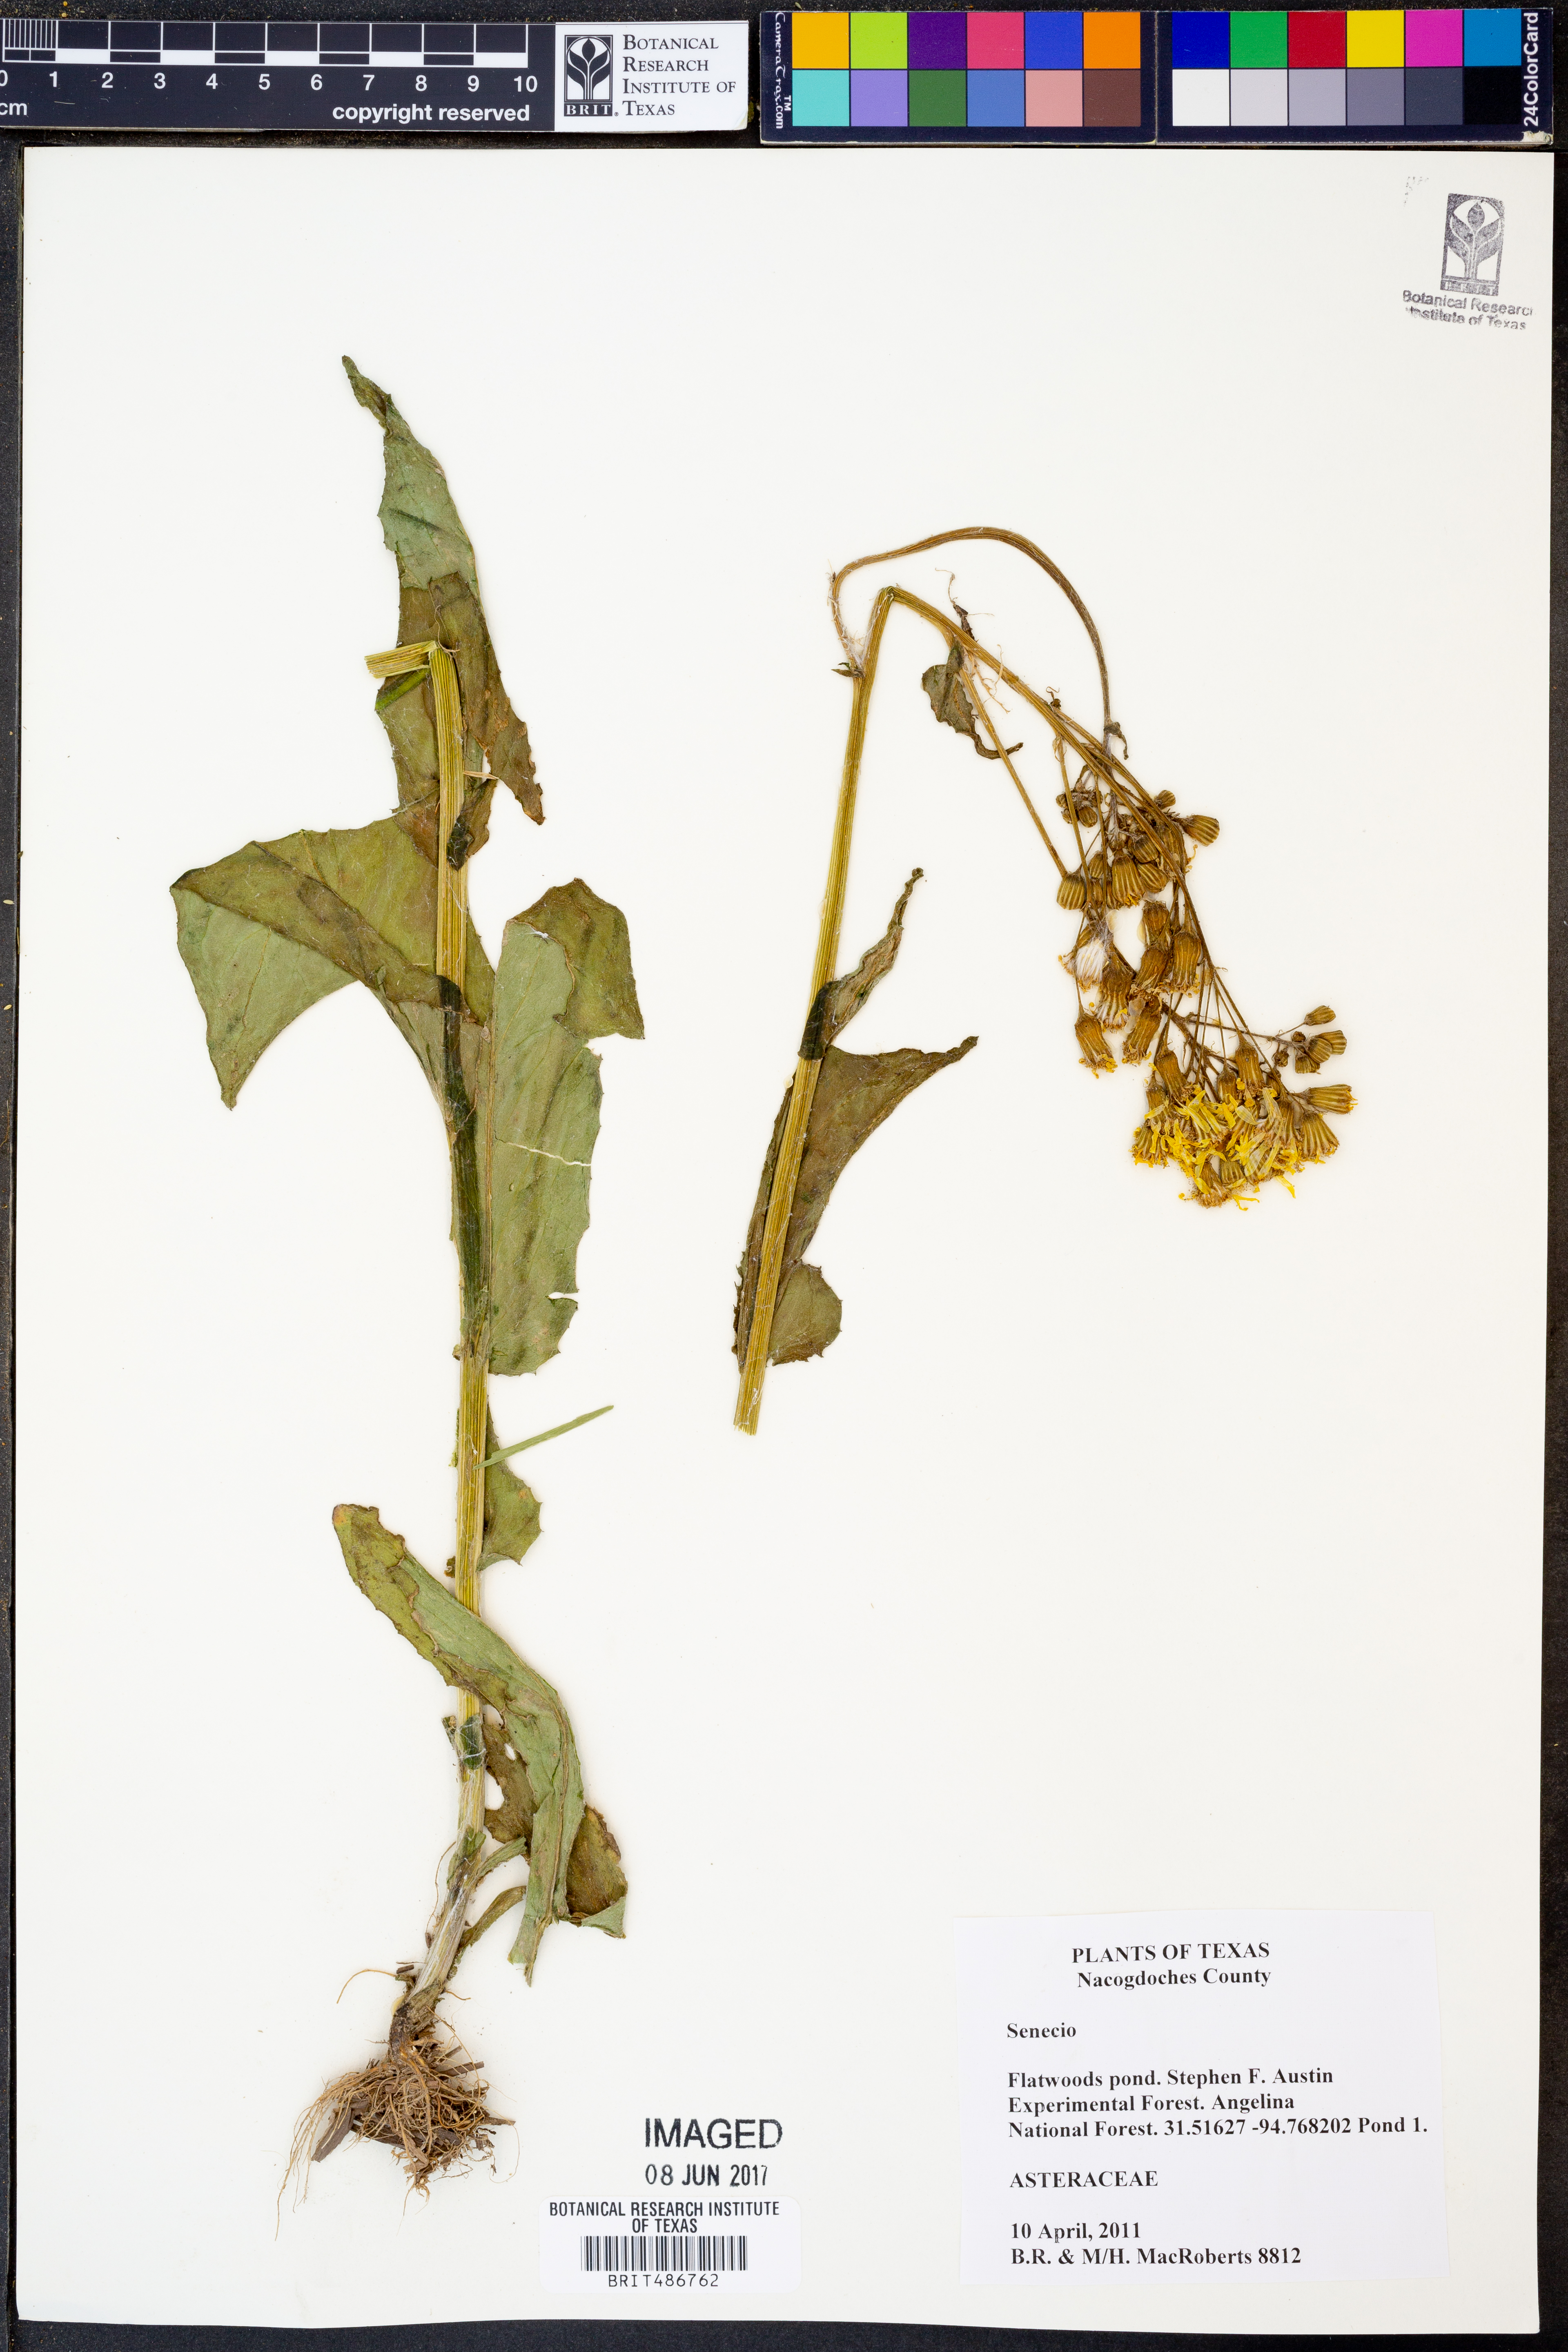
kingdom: Plantae
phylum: Tracheophyta
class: Magnoliopsida
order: Asterales
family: Asteraceae
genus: Senecio
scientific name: Senecio
